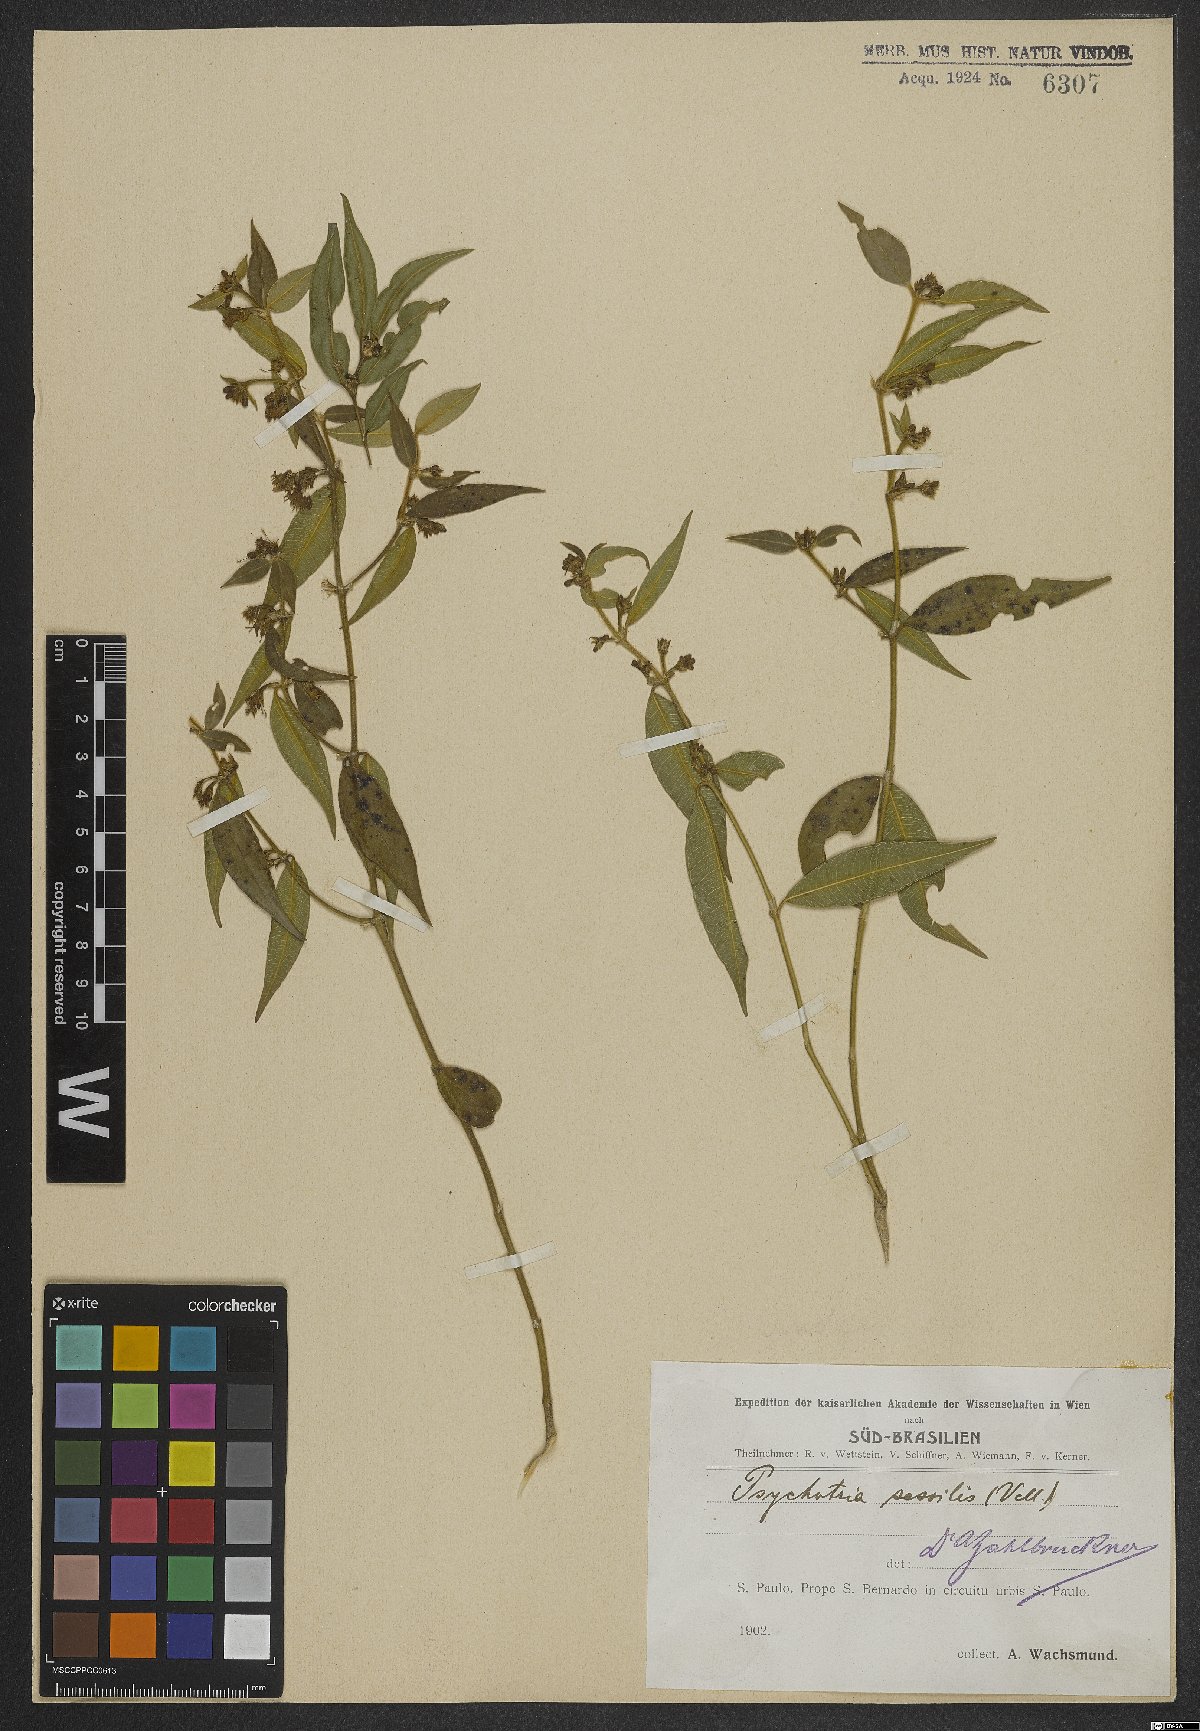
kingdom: Plantae
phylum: Tracheophyta
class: Magnoliopsida
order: Gentianales
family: Rubiaceae
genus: Rudgea
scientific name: Rudgea sessilis
